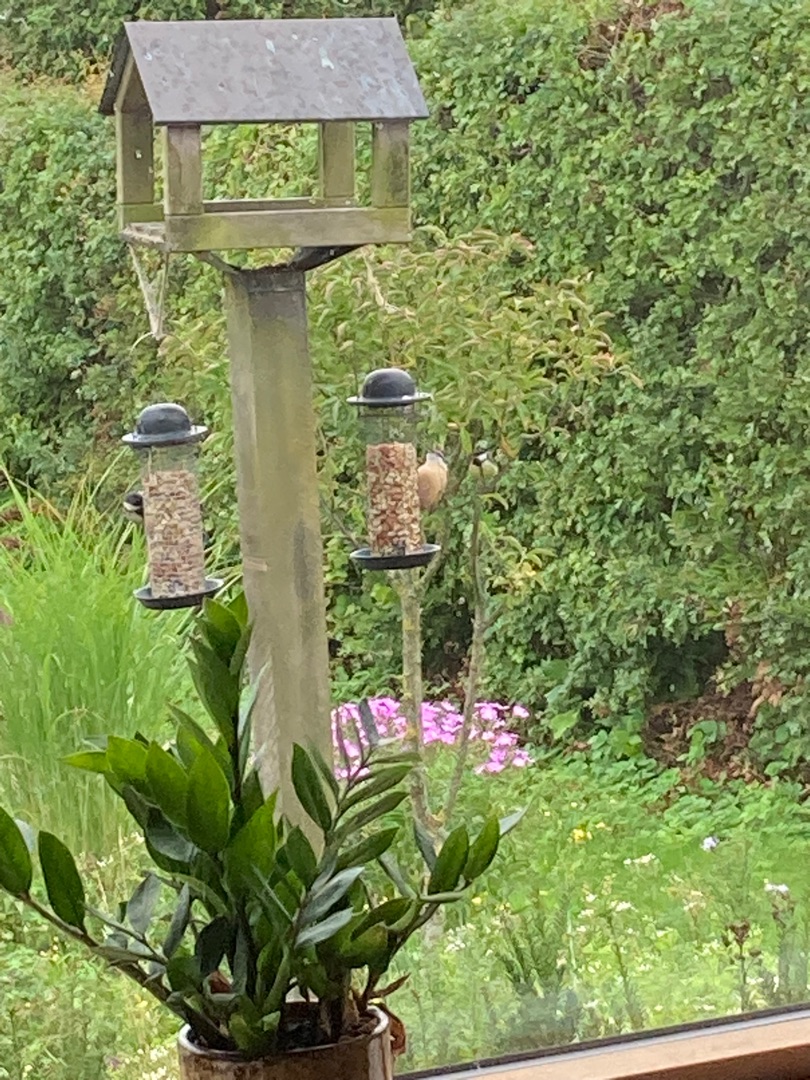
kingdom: Animalia
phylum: Chordata
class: Aves
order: Passeriformes
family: Sittidae
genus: Sitta
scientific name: Sitta europaea
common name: Spætmejse
